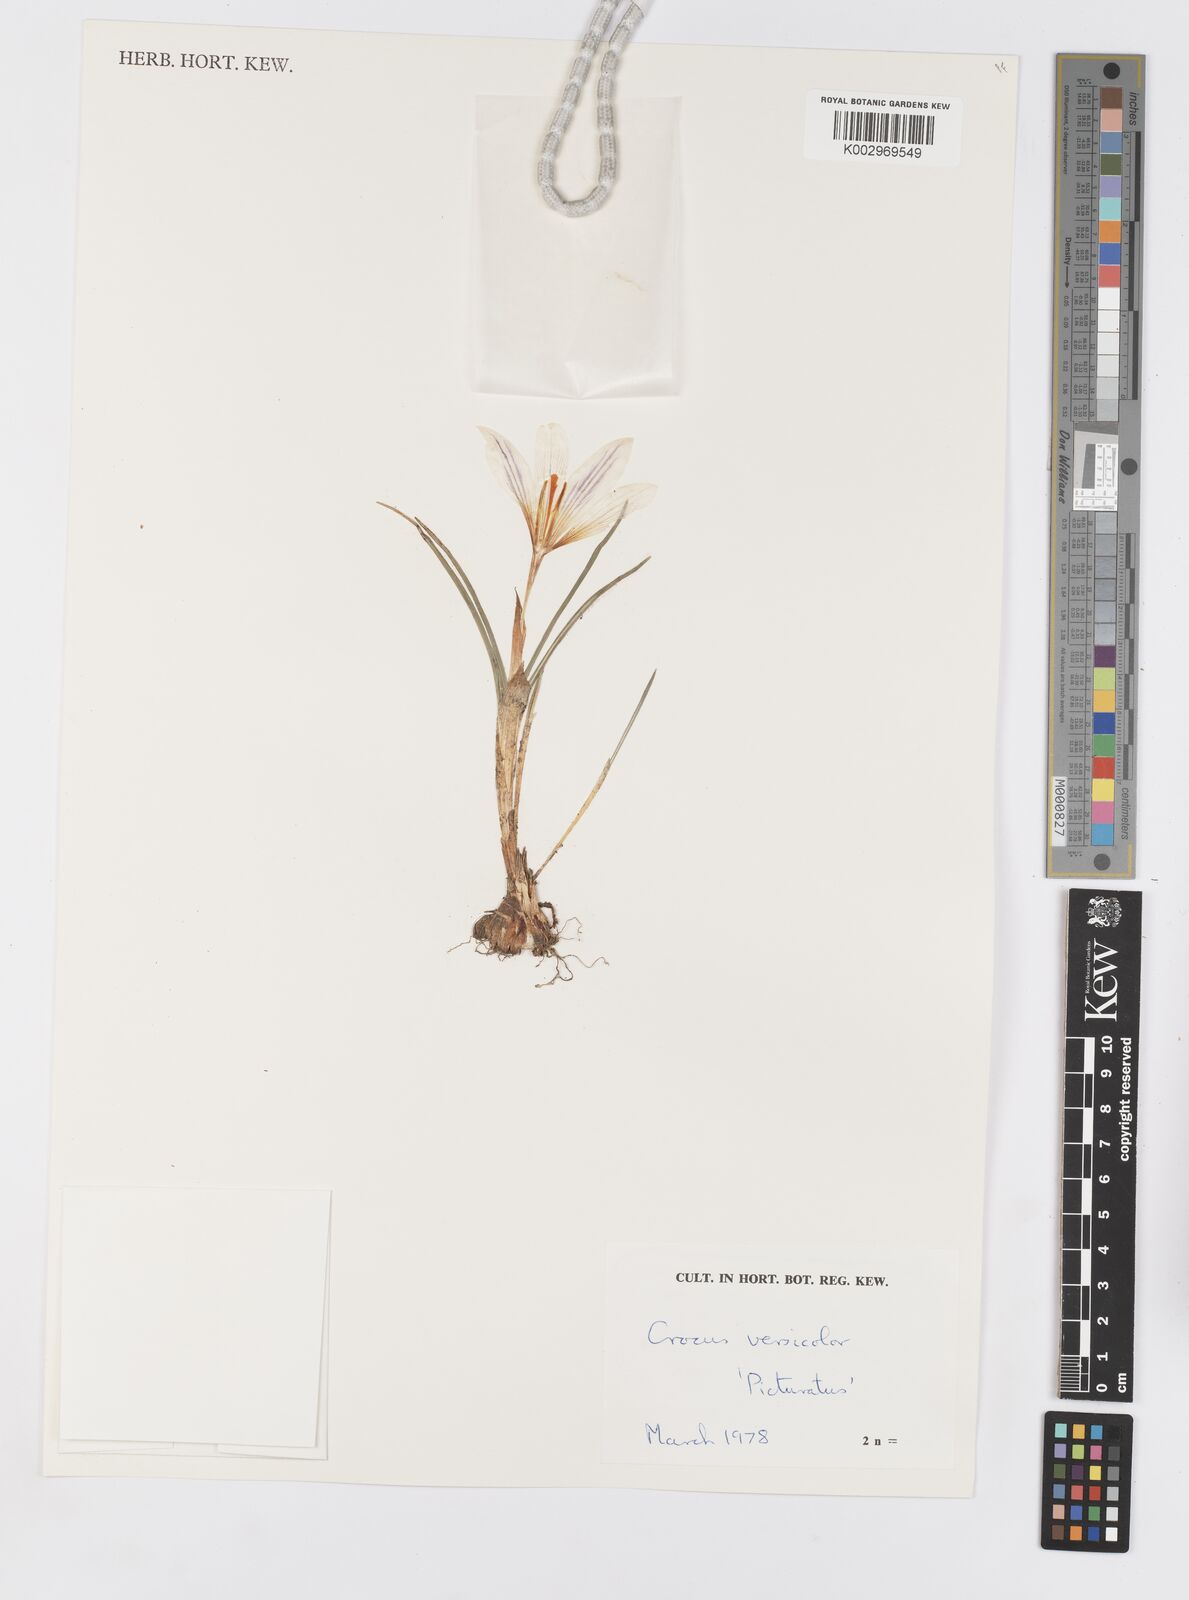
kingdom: Plantae
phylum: Tracheophyta
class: Liliopsida
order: Asparagales
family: Iridaceae
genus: Crocus
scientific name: Crocus versicolor
